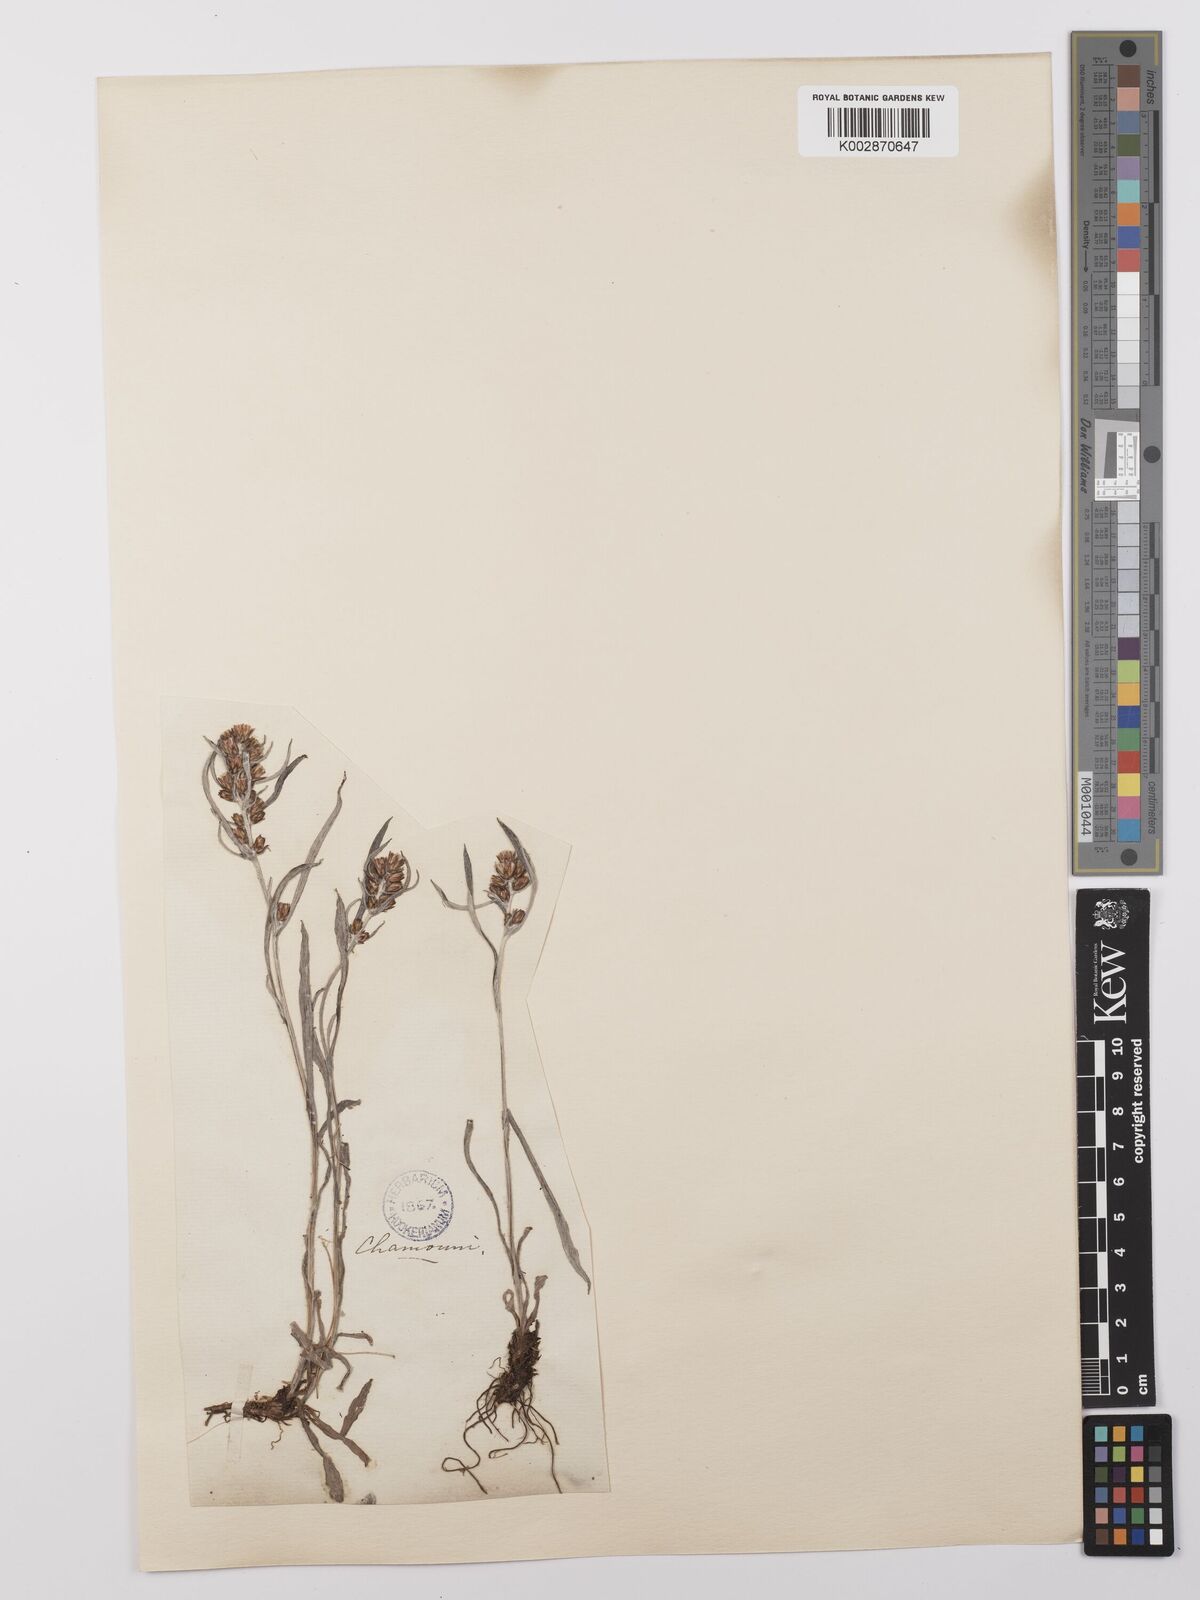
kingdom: Plantae
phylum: Tracheophyta
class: Magnoliopsida
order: Asterales
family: Asteraceae
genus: Omalotheca
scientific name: Omalotheca sylvatica
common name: Heath cudweed
